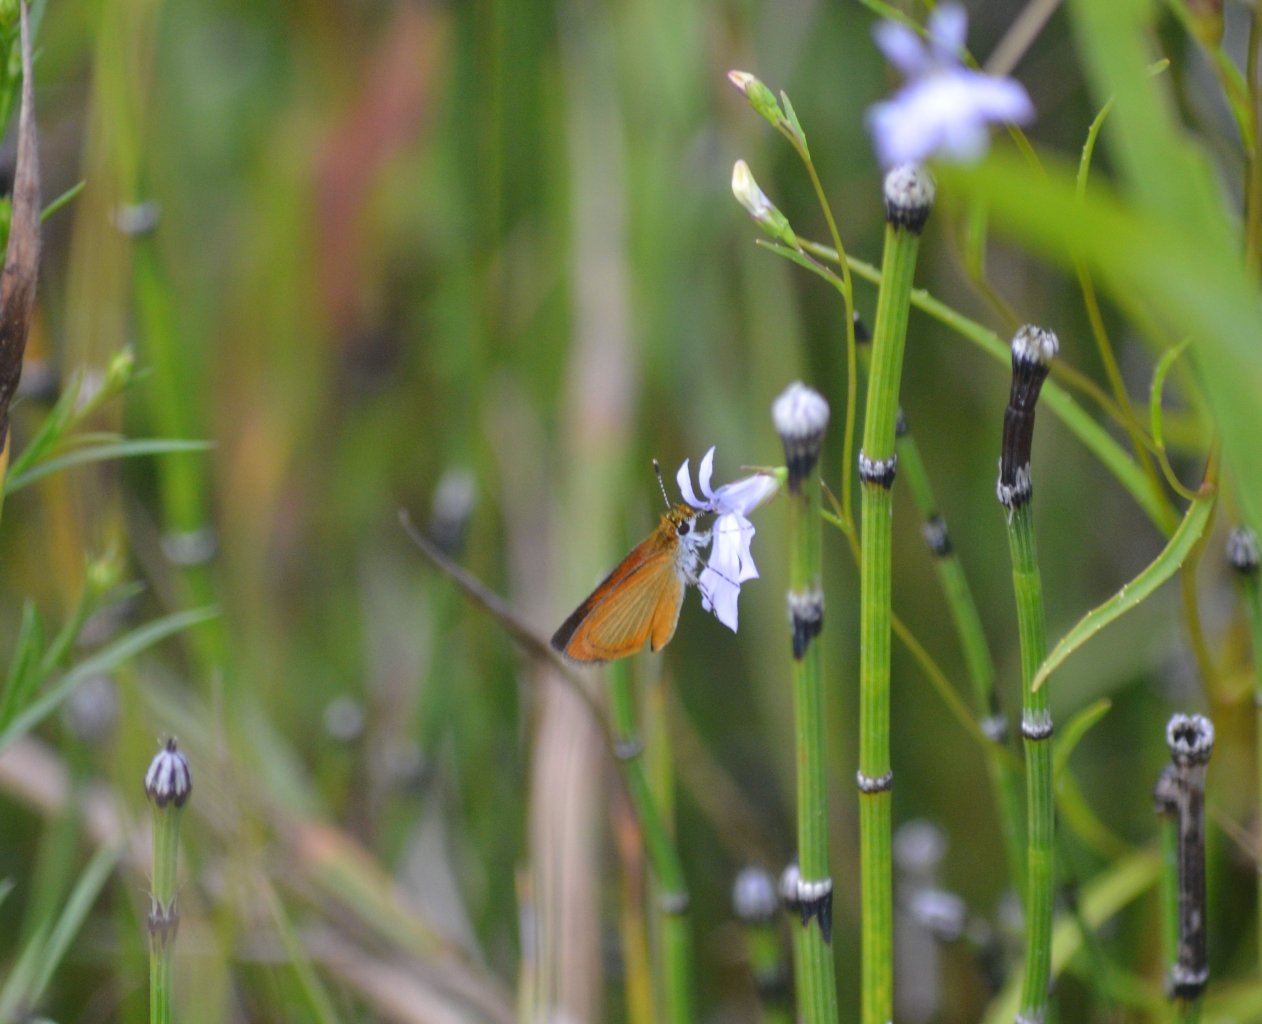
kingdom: Animalia
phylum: Arthropoda
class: Insecta
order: Lepidoptera
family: Hesperiidae
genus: Ancyloxypha
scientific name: Ancyloxypha numitor
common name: Least Skipper
